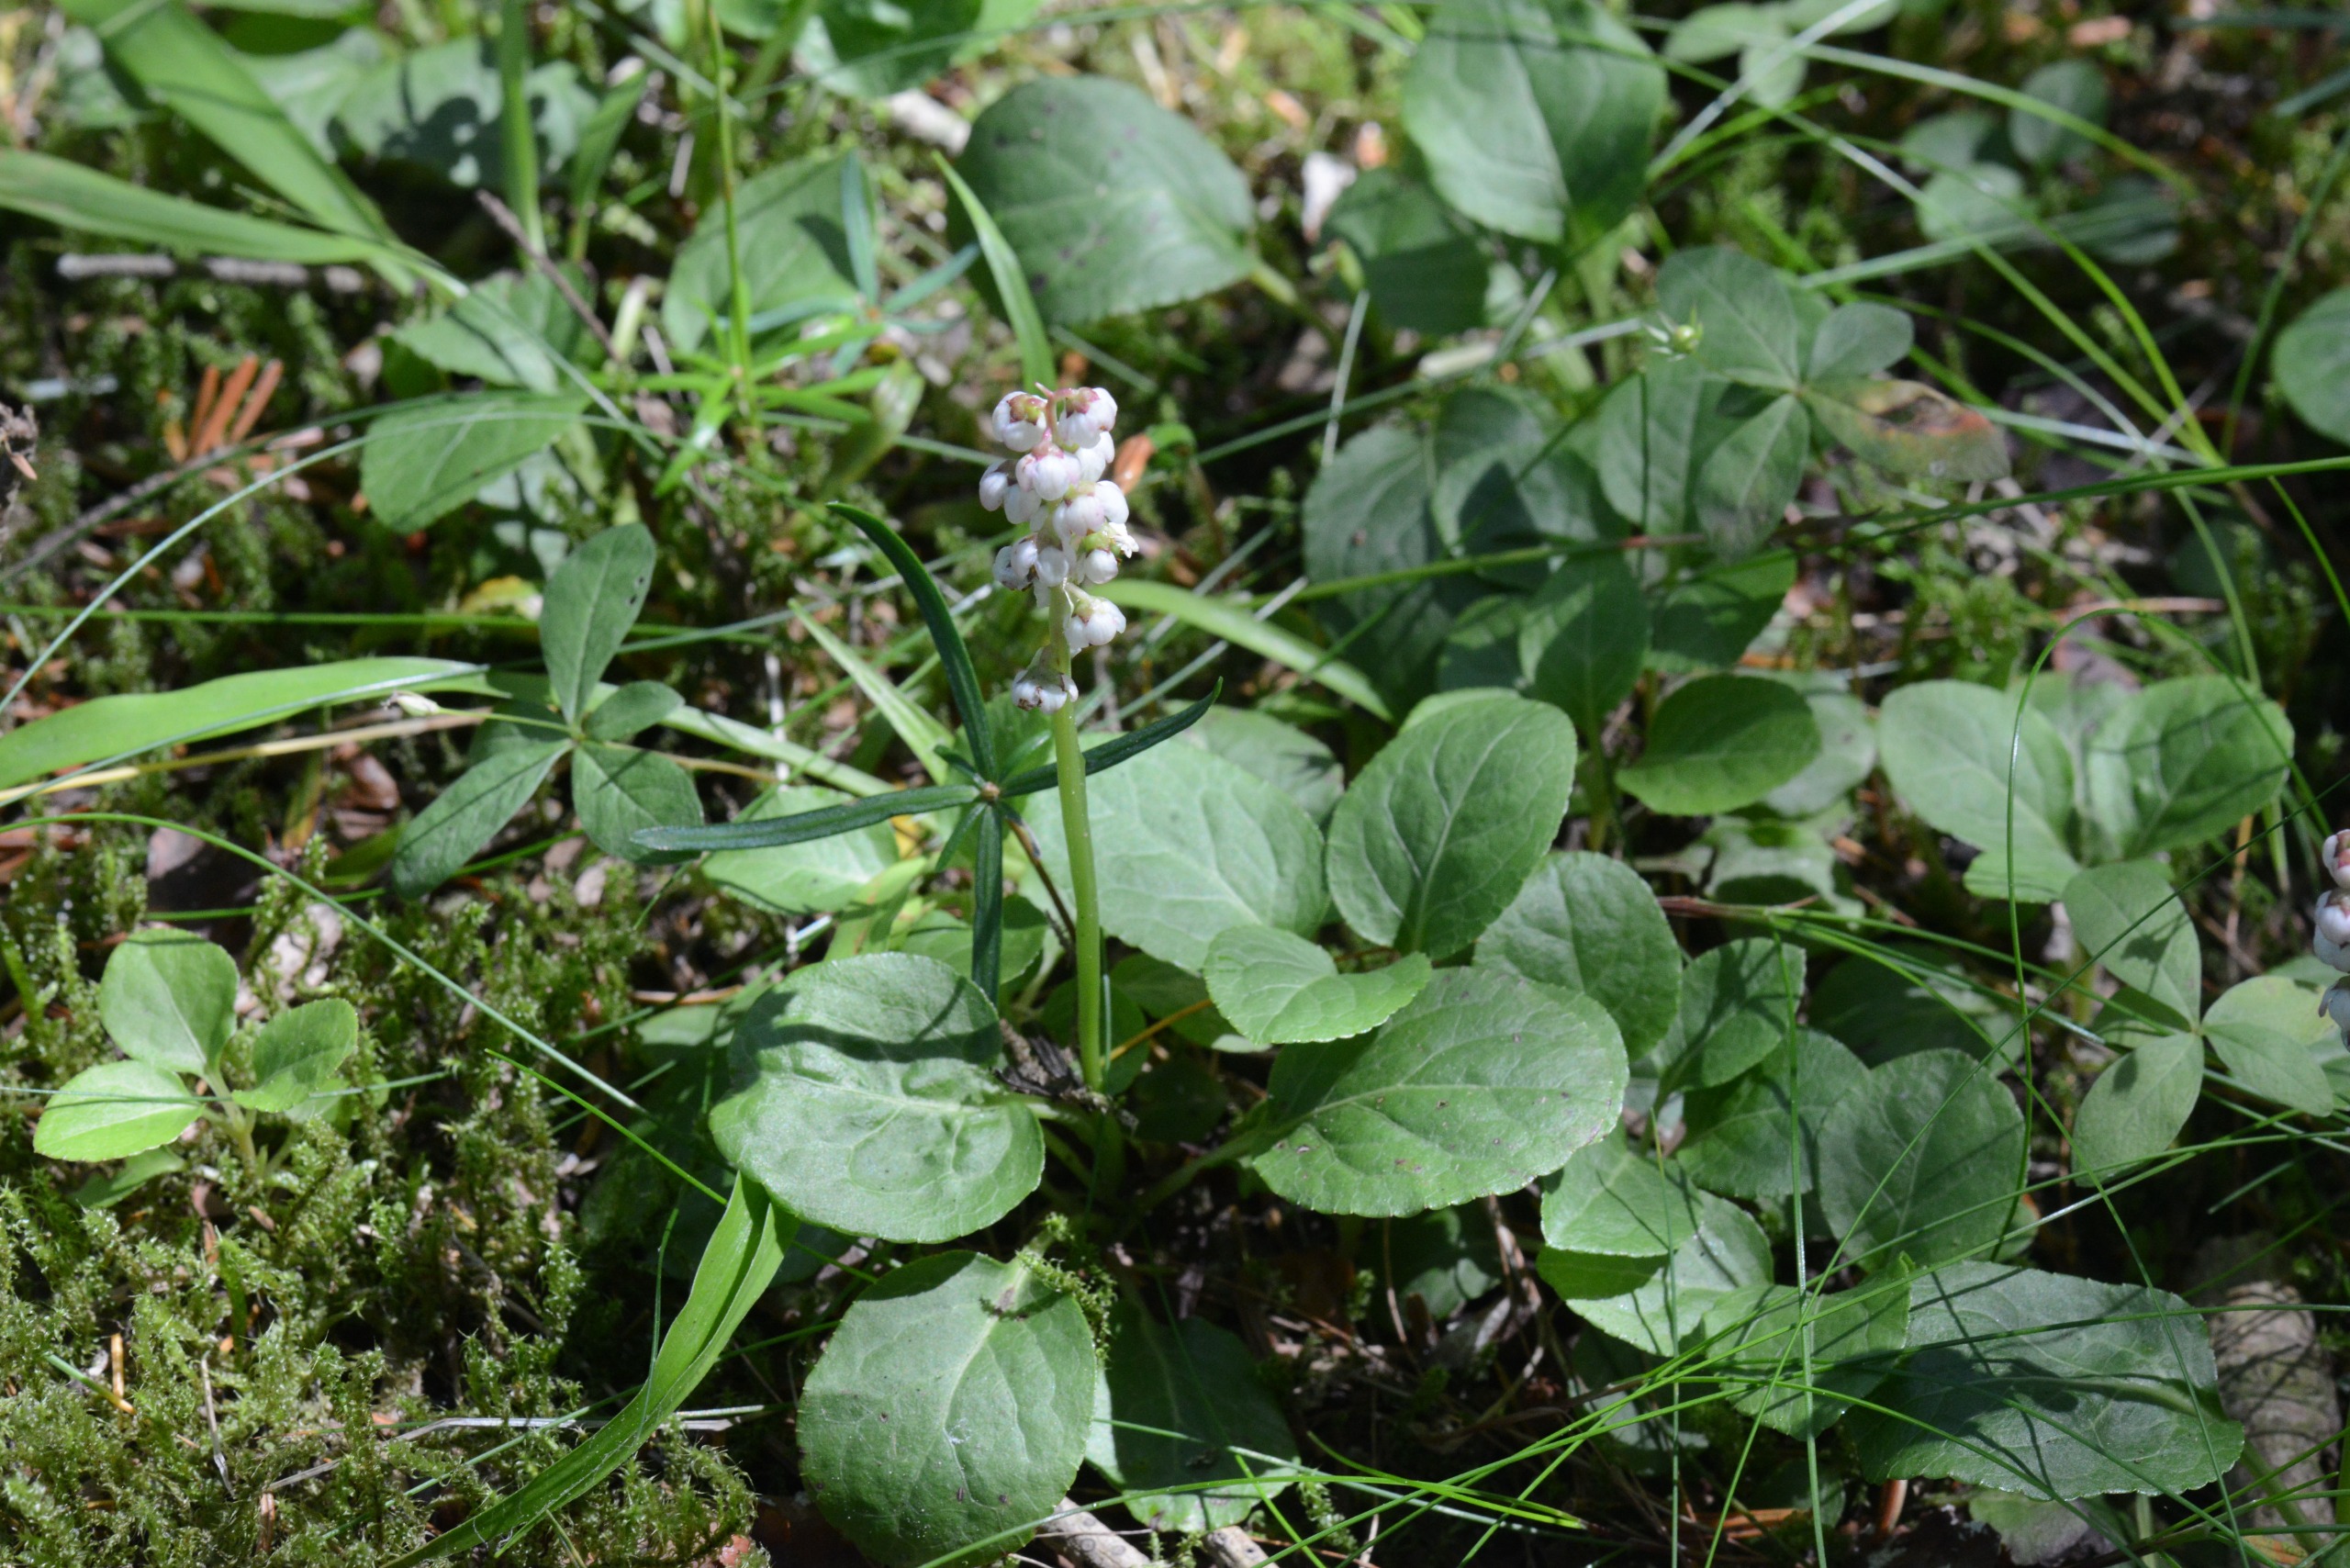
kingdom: Plantae
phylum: Tracheophyta
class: Magnoliopsida
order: Ericales
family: Ericaceae
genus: Pyrola
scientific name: Pyrola minor
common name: Liden vintergrøn
